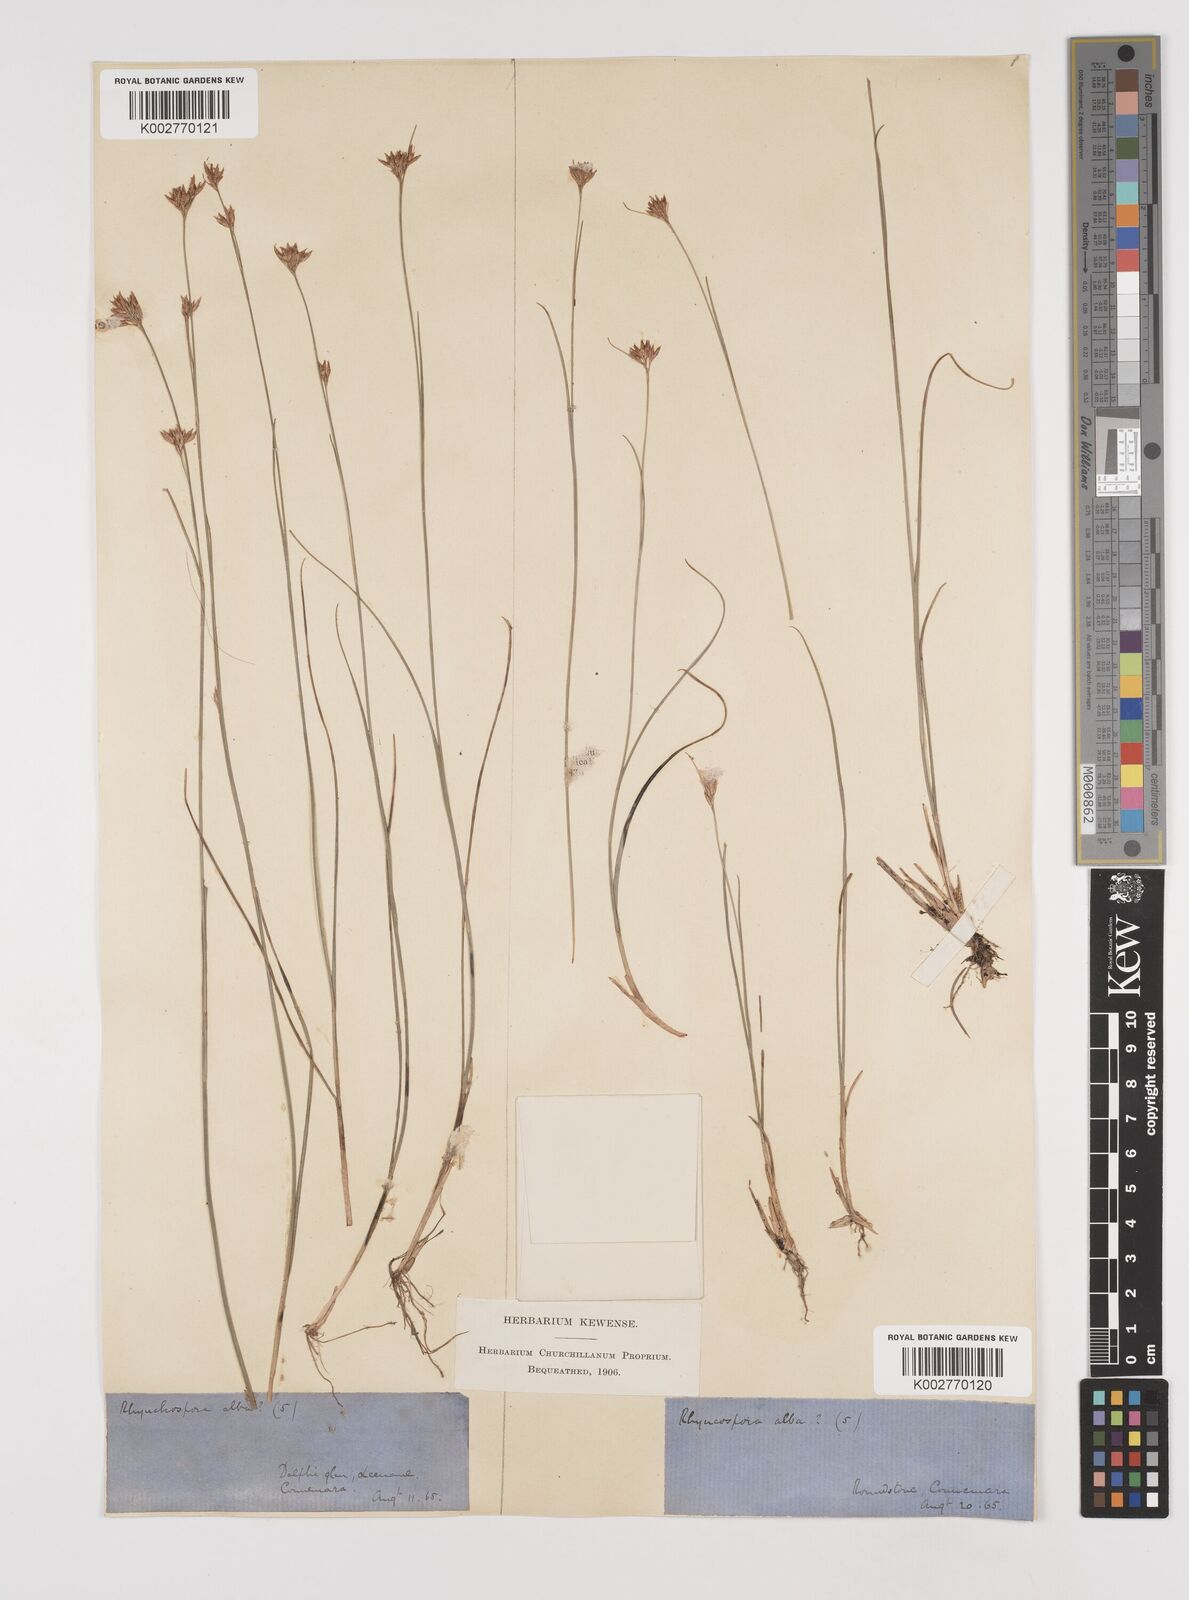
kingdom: Plantae
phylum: Tracheophyta
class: Liliopsida
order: Poales
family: Cyperaceae
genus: Rhynchospora
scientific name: Rhynchospora alba
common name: White beak-sedge
